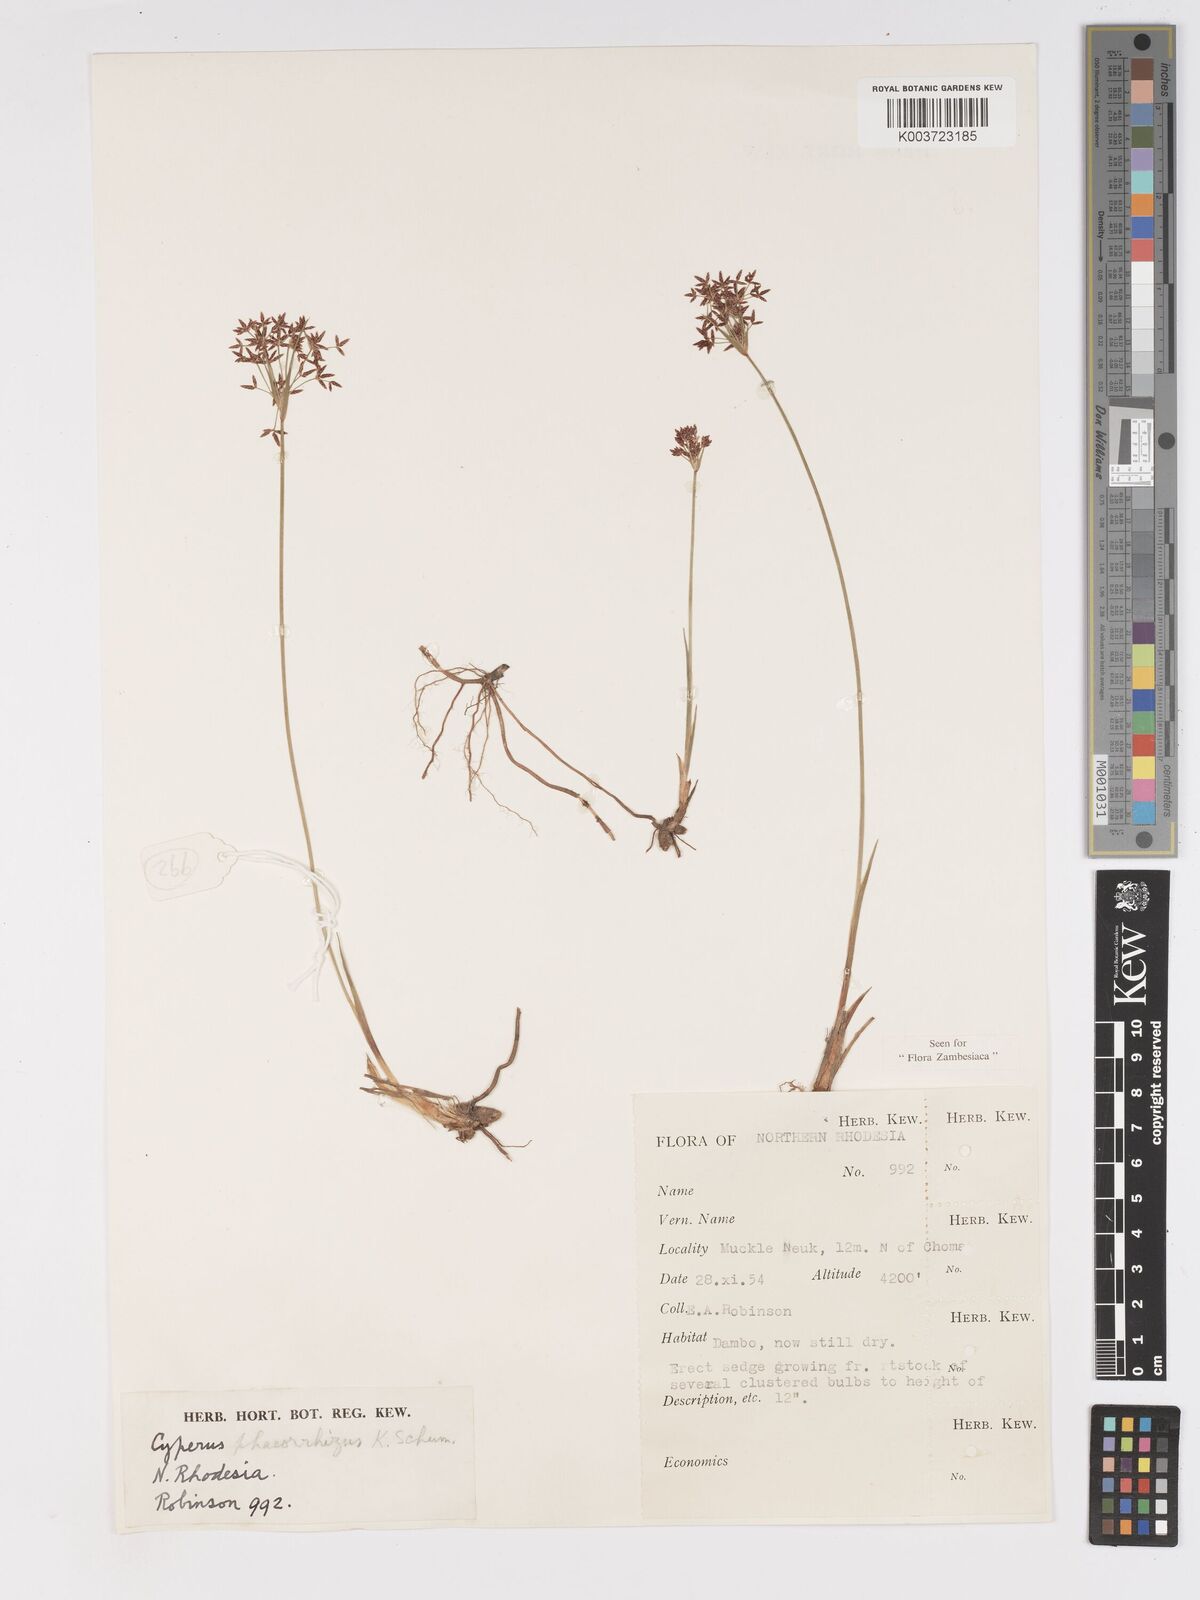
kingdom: Plantae
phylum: Tracheophyta
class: Liliopsida
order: Poales
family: Cyperaceae
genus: Cyperus
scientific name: Cyperus mwinilungensis
